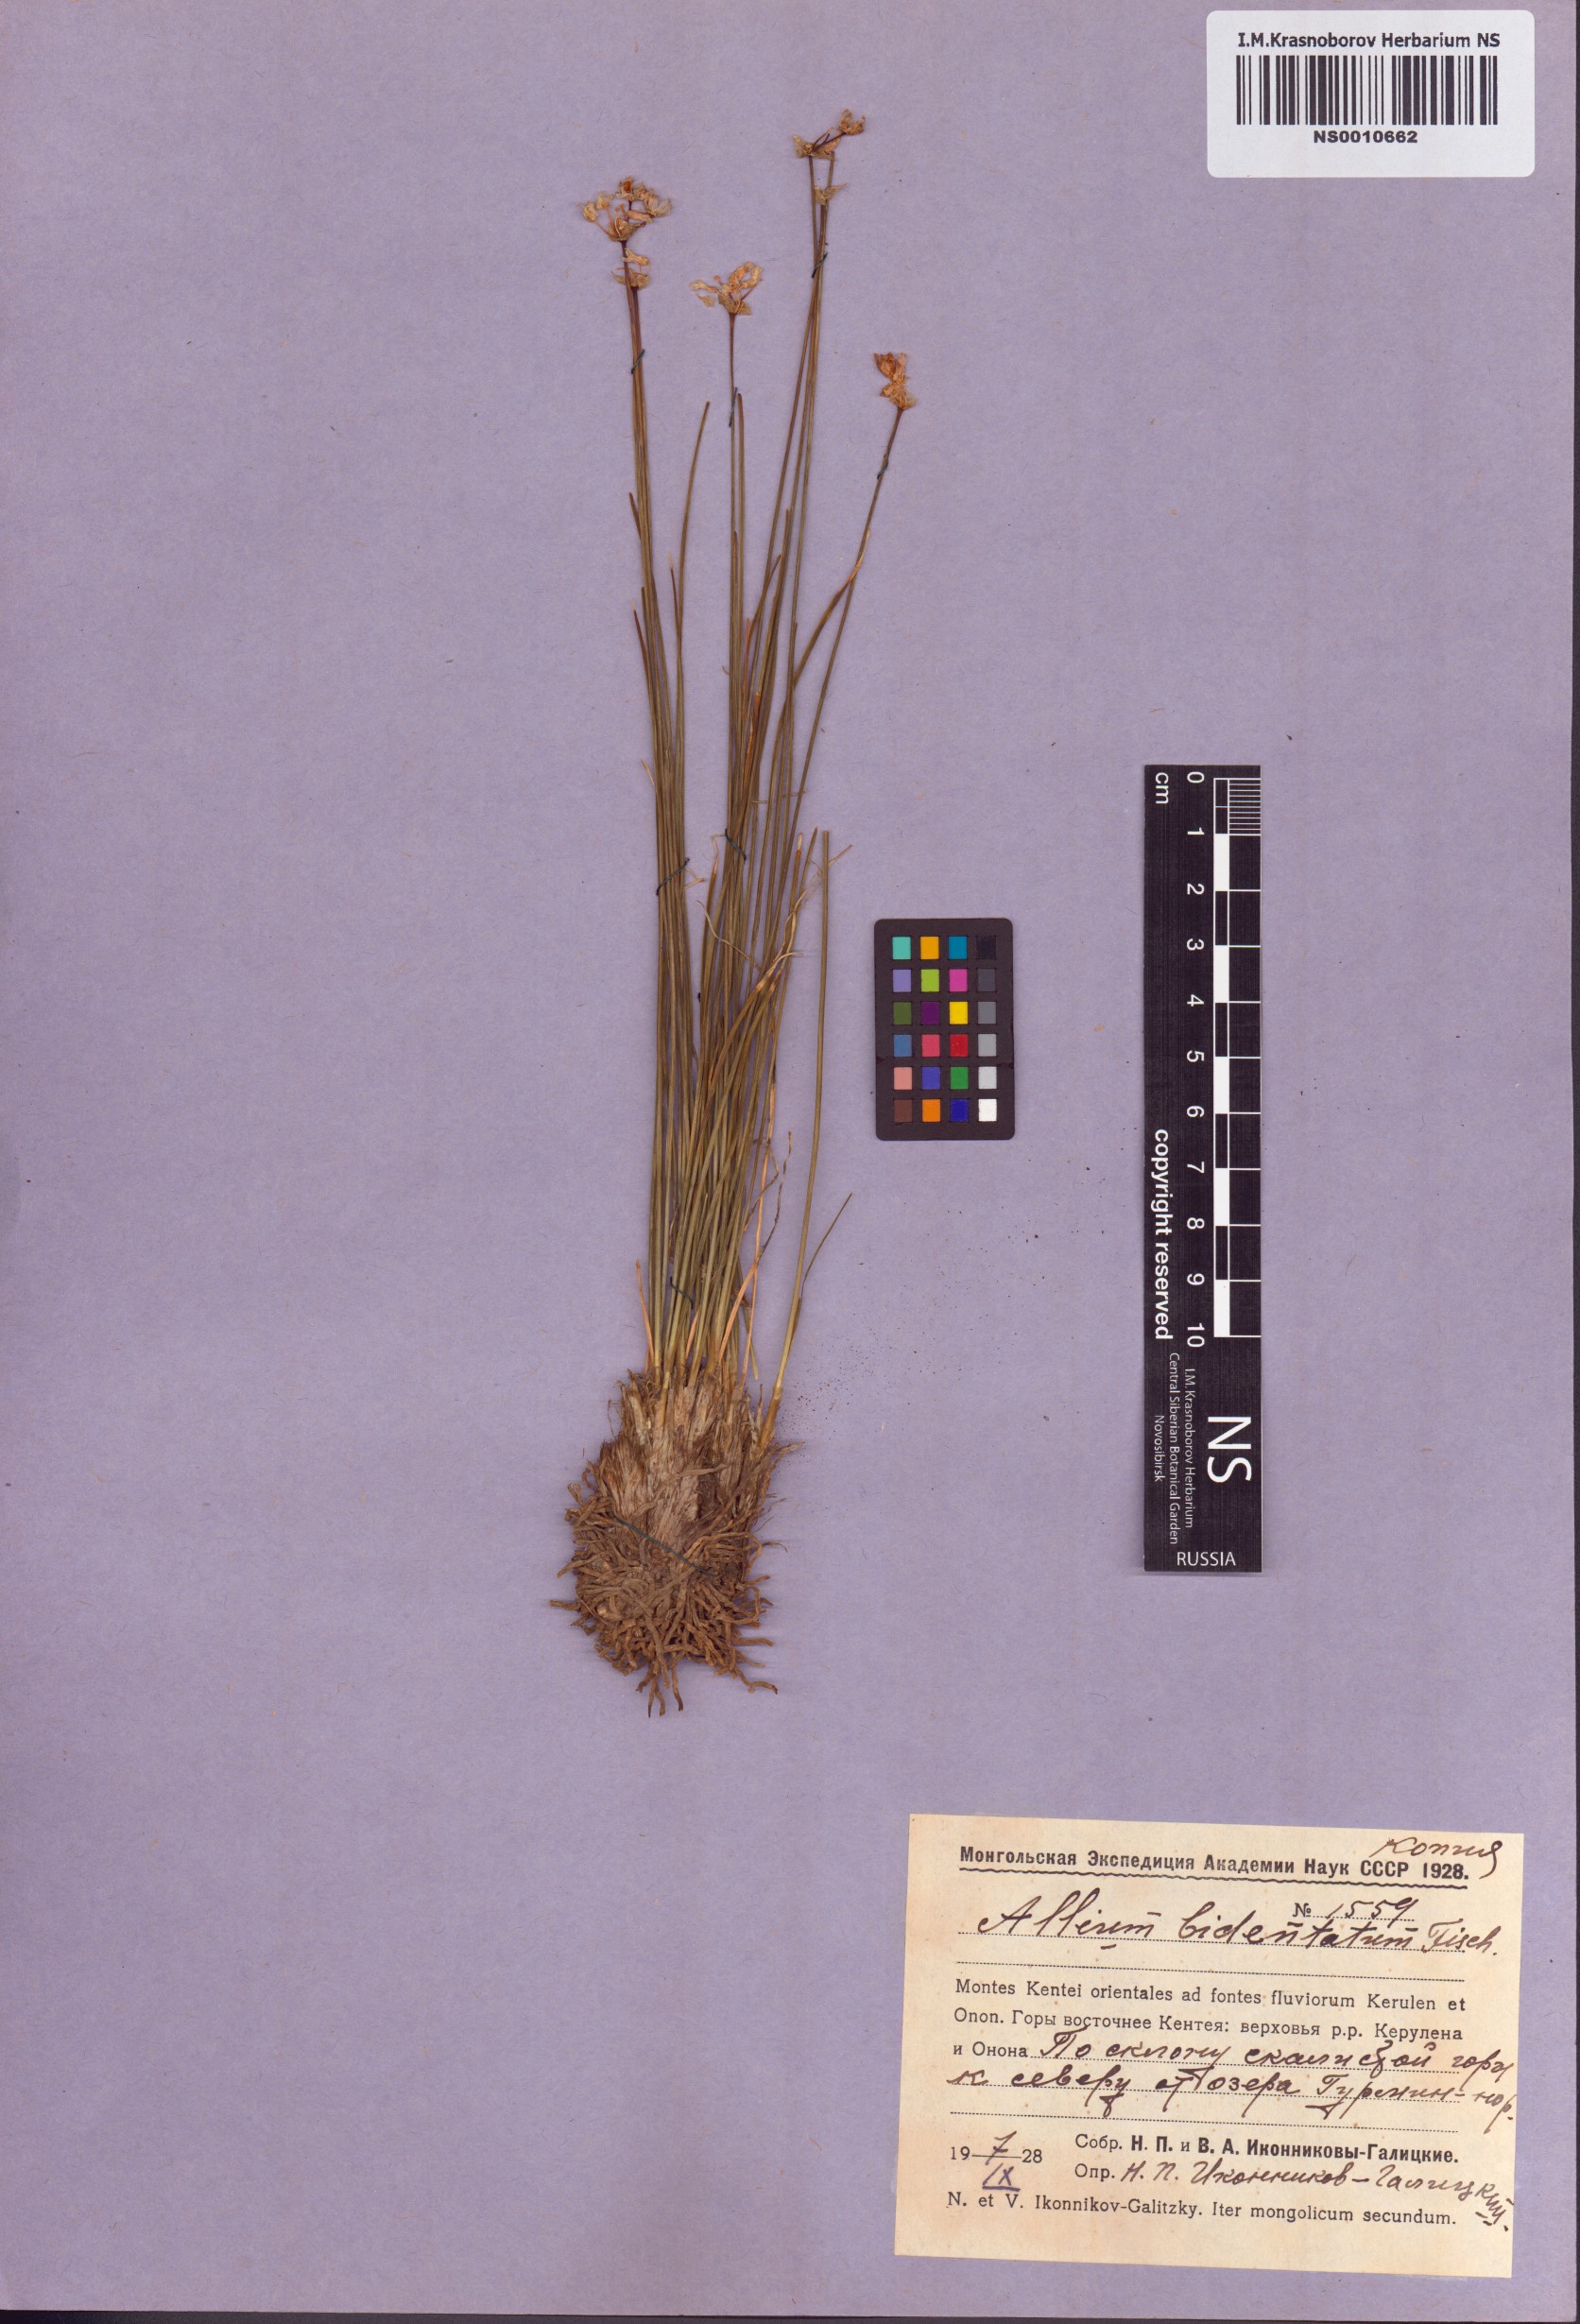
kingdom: Plantae
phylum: Tracheophyta
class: Liliopsida
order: Asparagales
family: Amaryllidaceae
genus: Allium
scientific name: Allium bidentatum
